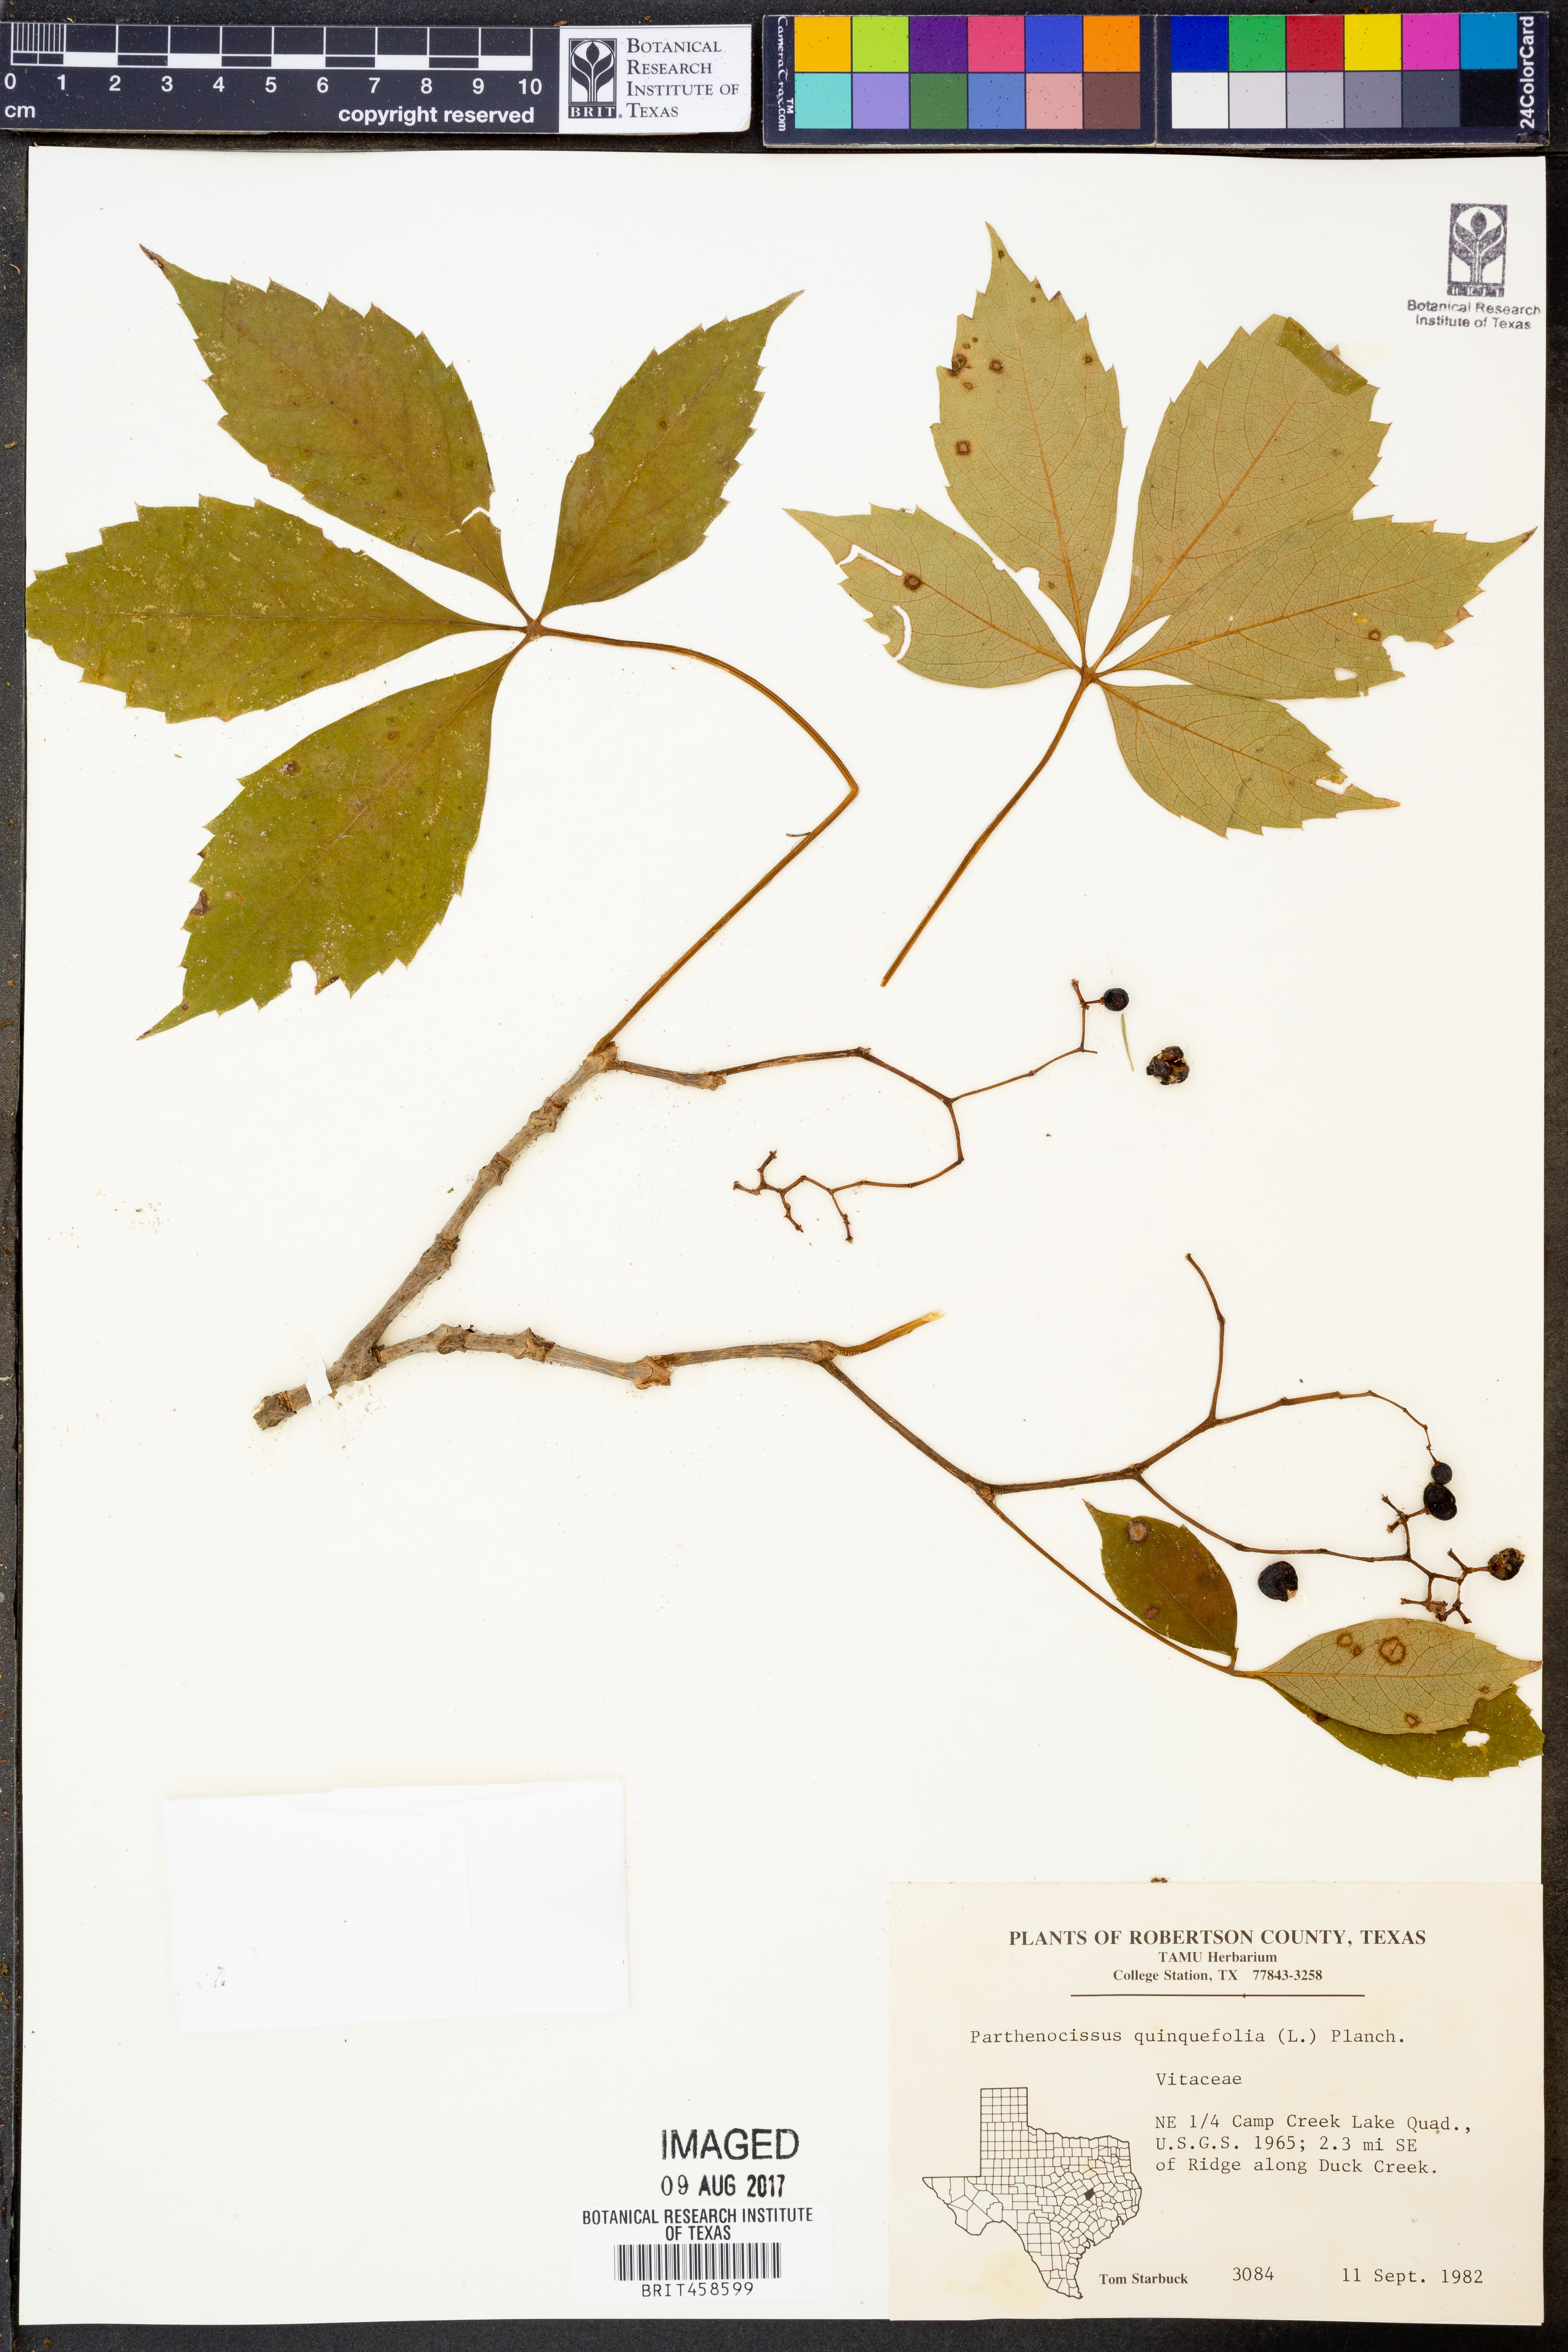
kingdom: Plantae
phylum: Tracheophyta
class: Magnoliopsida
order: Vitales
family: Vitaceae
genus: Parthenocissus
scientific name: Parthenocissus quinquefolia
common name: Virginia-creeper
